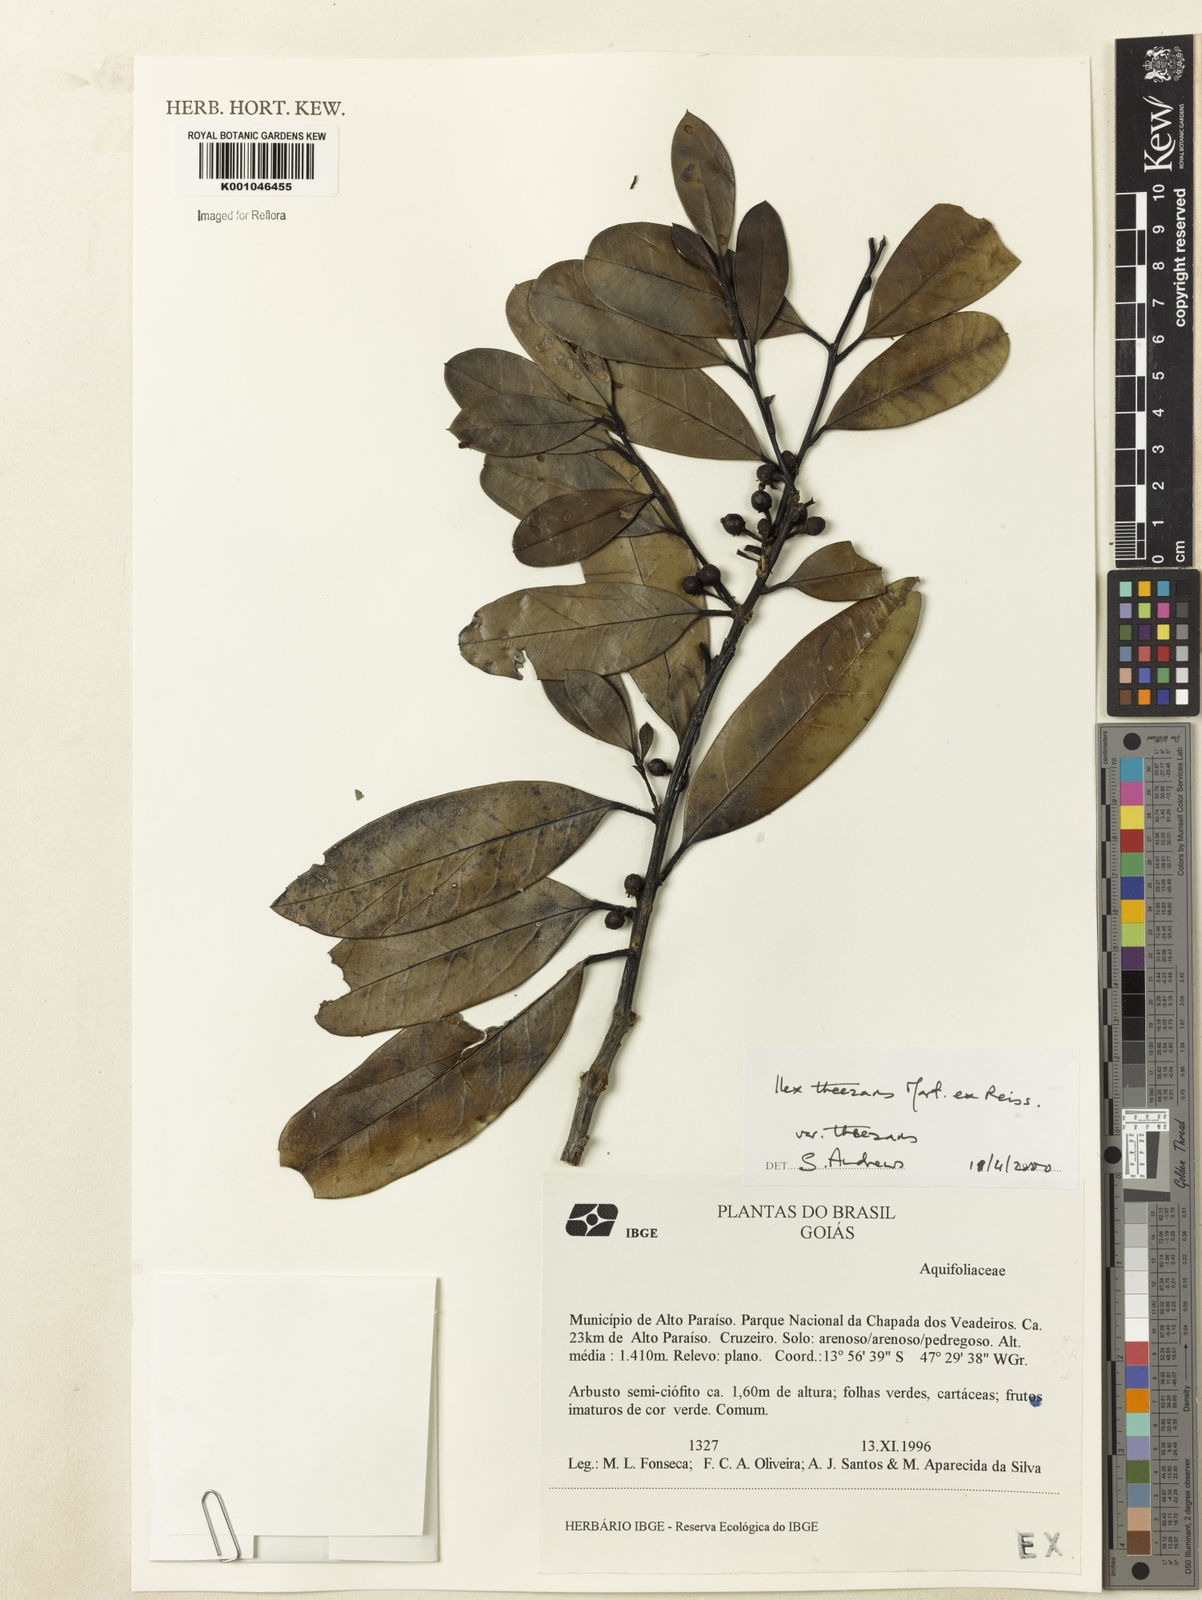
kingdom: Plantae
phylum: Tracheophyta
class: Magnoliopsida
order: Aquifoliales
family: Aquifoliaceae
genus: Ilex
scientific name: Ilex paraguariensis
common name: Paraguay tea
